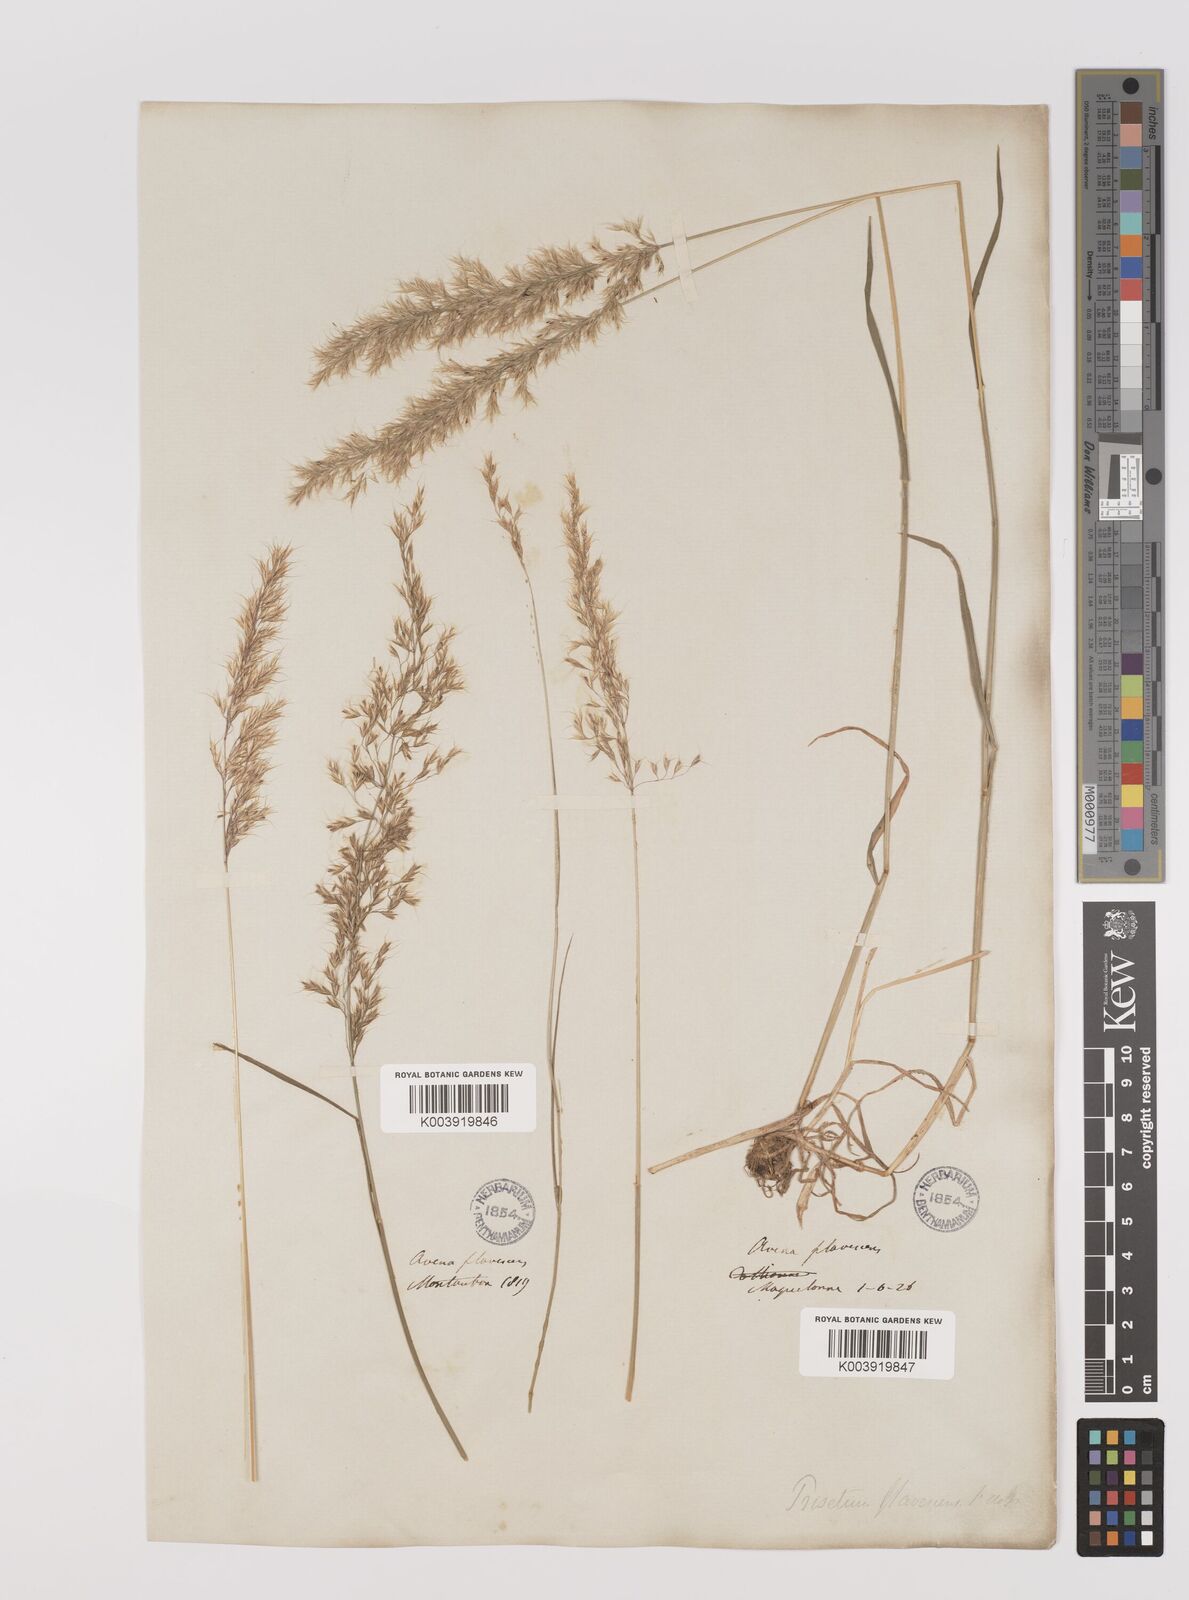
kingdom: Plantae
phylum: Tracheophyta
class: Liliopsida
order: Poales
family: Poaceae
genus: Trisetum
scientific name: Trisetum flavescens
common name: Yellow oat-grass
